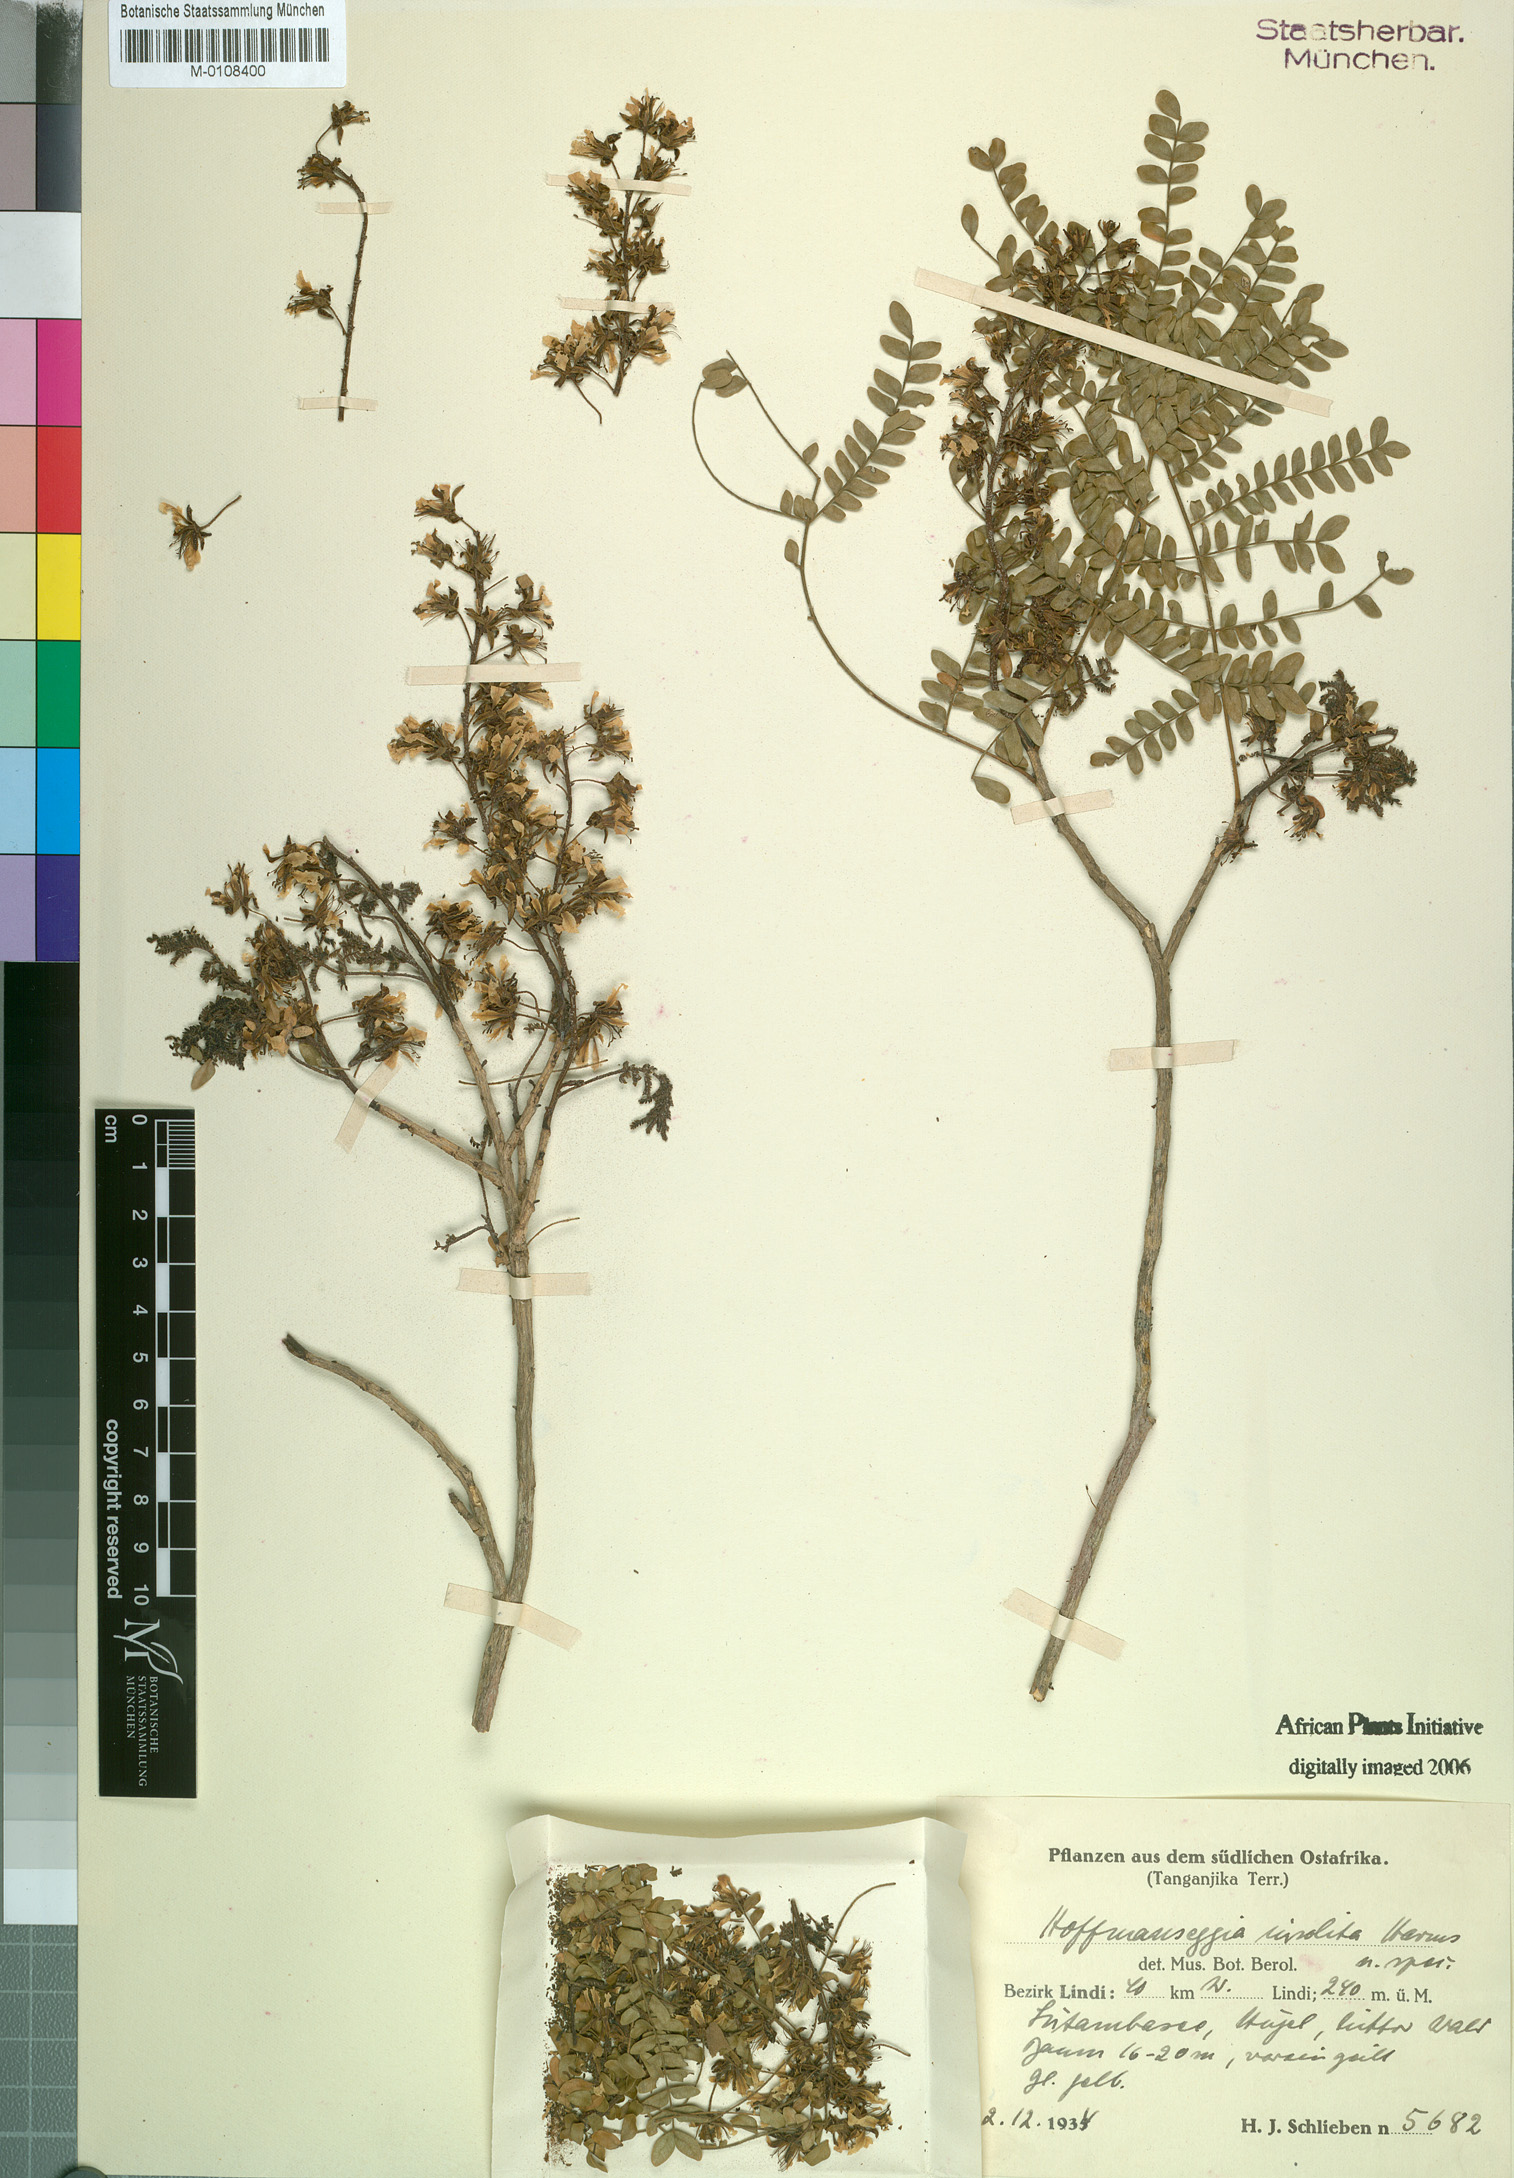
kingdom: Plantae
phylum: Tracheophyta
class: Magnoliopsida
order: Fabales
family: Fabaceae
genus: Stuhlmannia
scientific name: Stuhlmannia moavi
